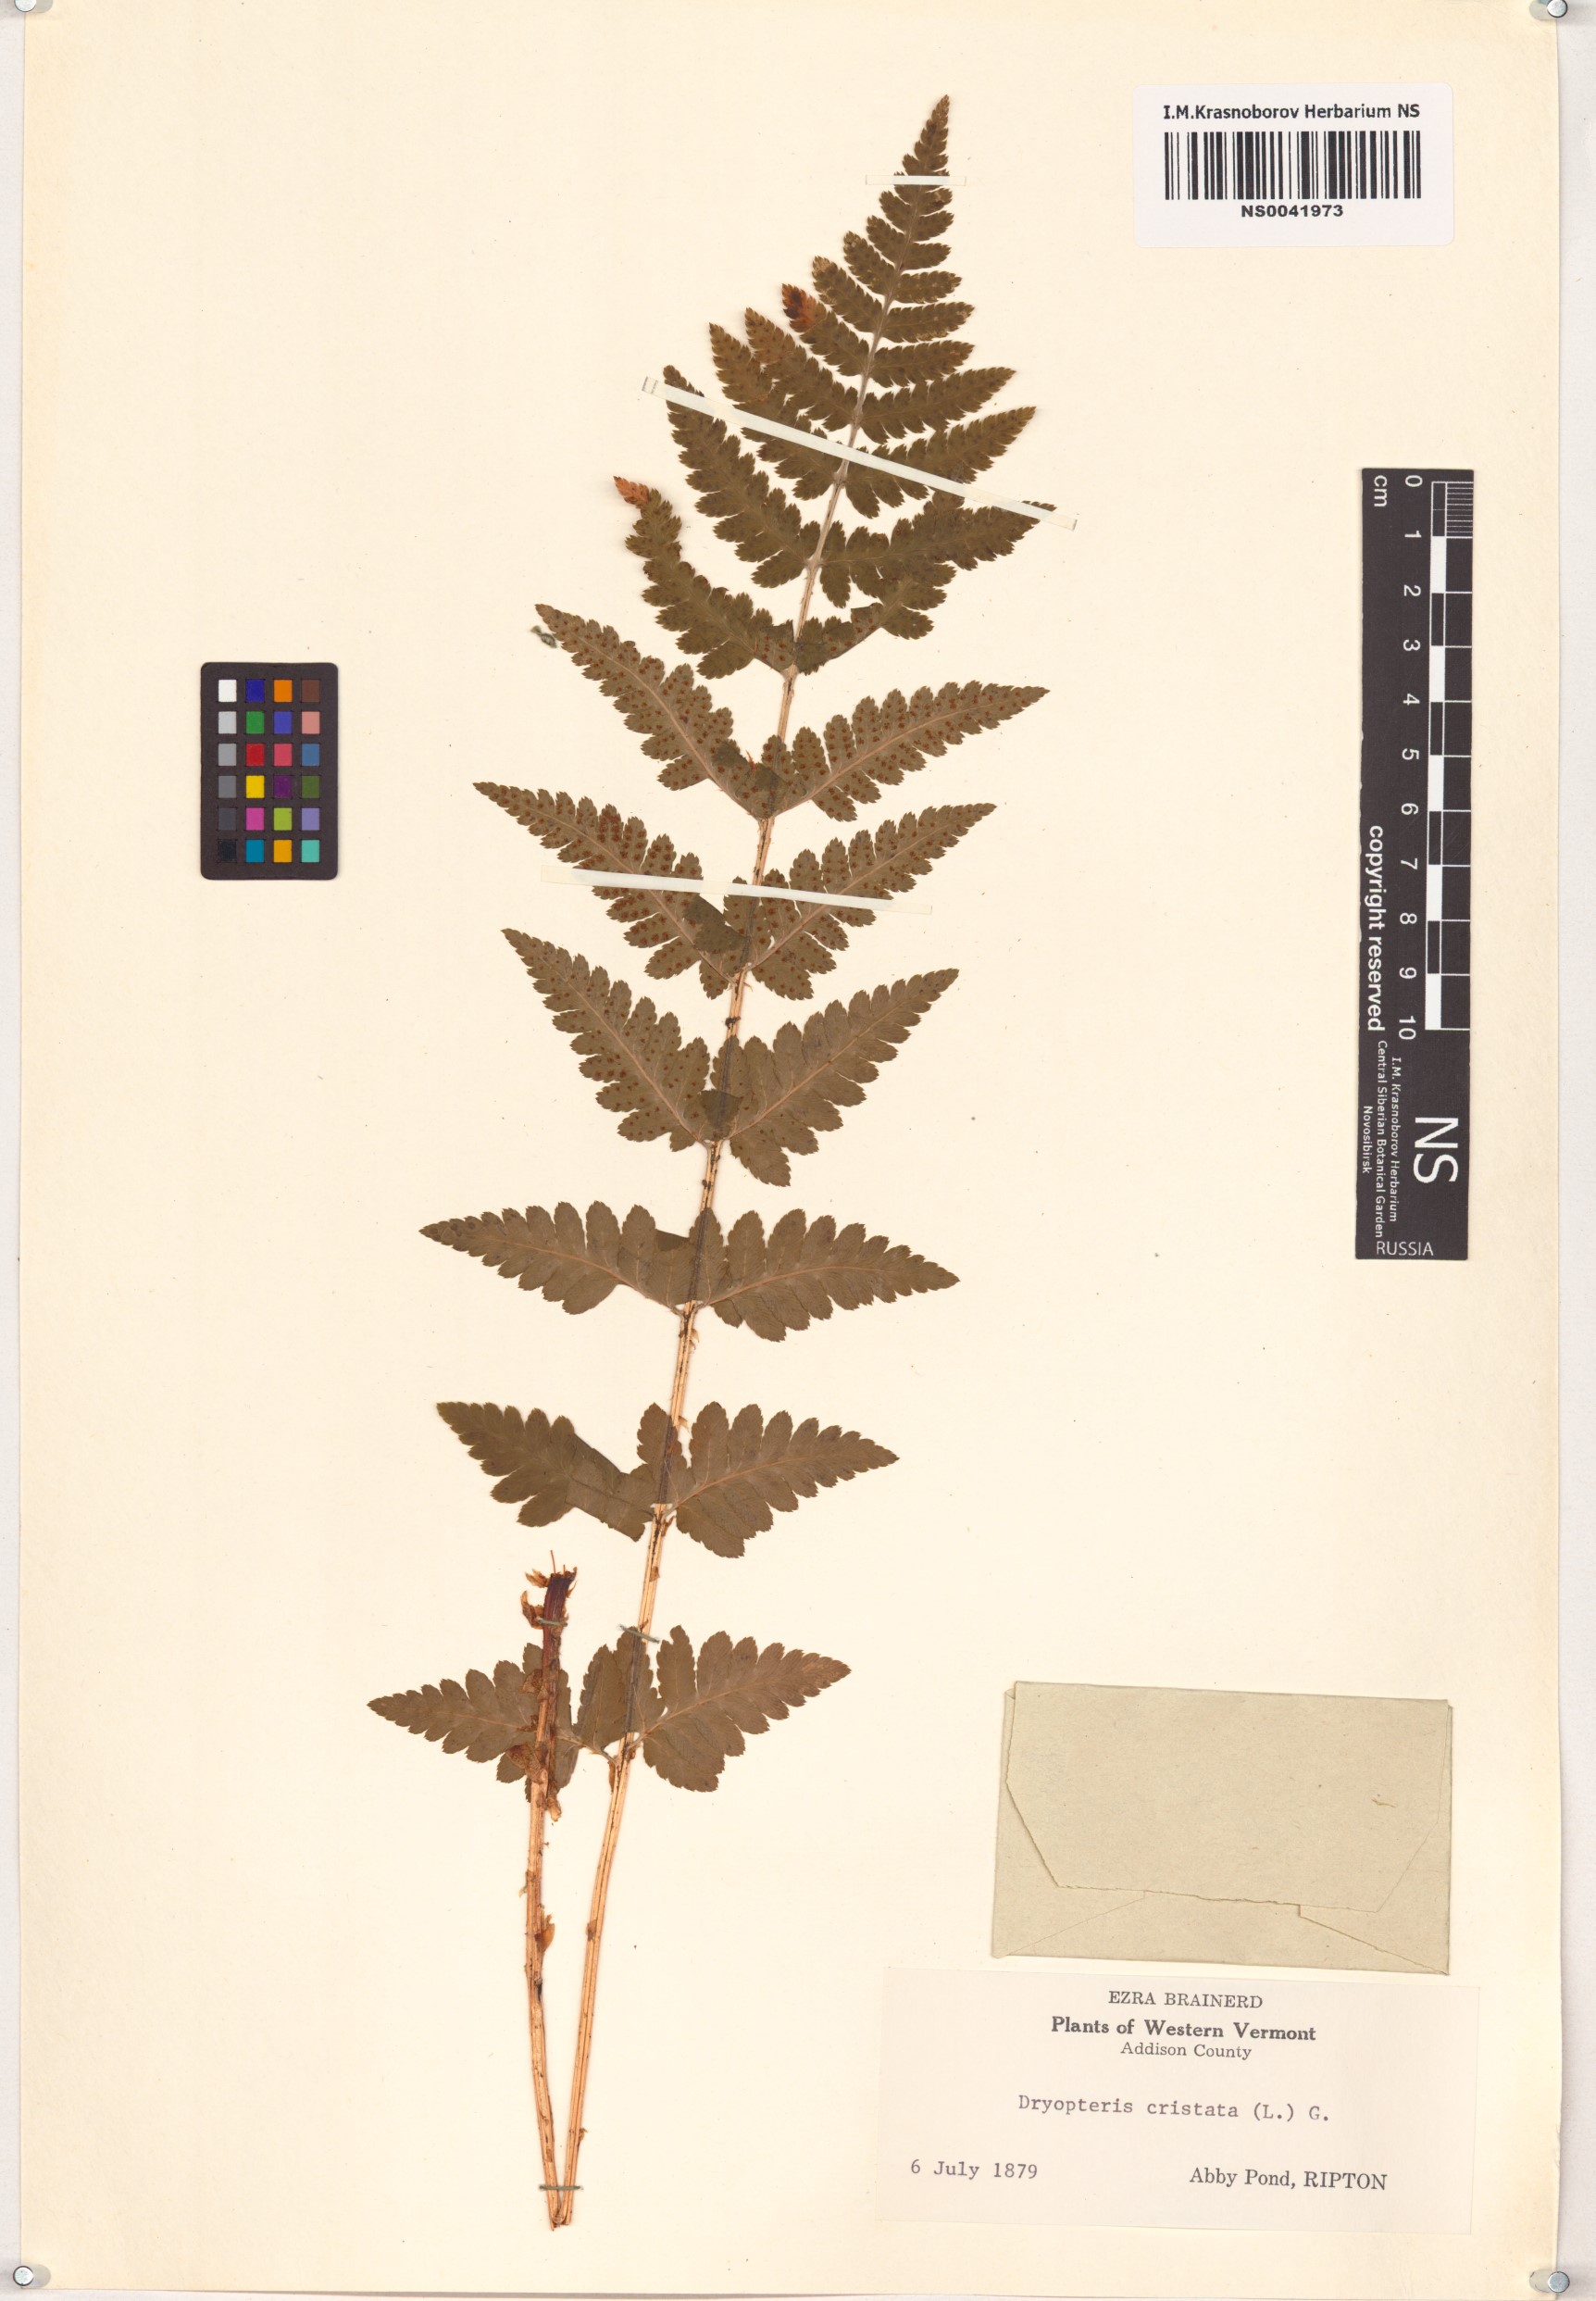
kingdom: Plantae
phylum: Tracheophyta
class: Polypodiopsida
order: Polypodiales
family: Dryopteridaceae
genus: Dryopteris
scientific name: Dryopteris cristata
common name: Crested wood fern
